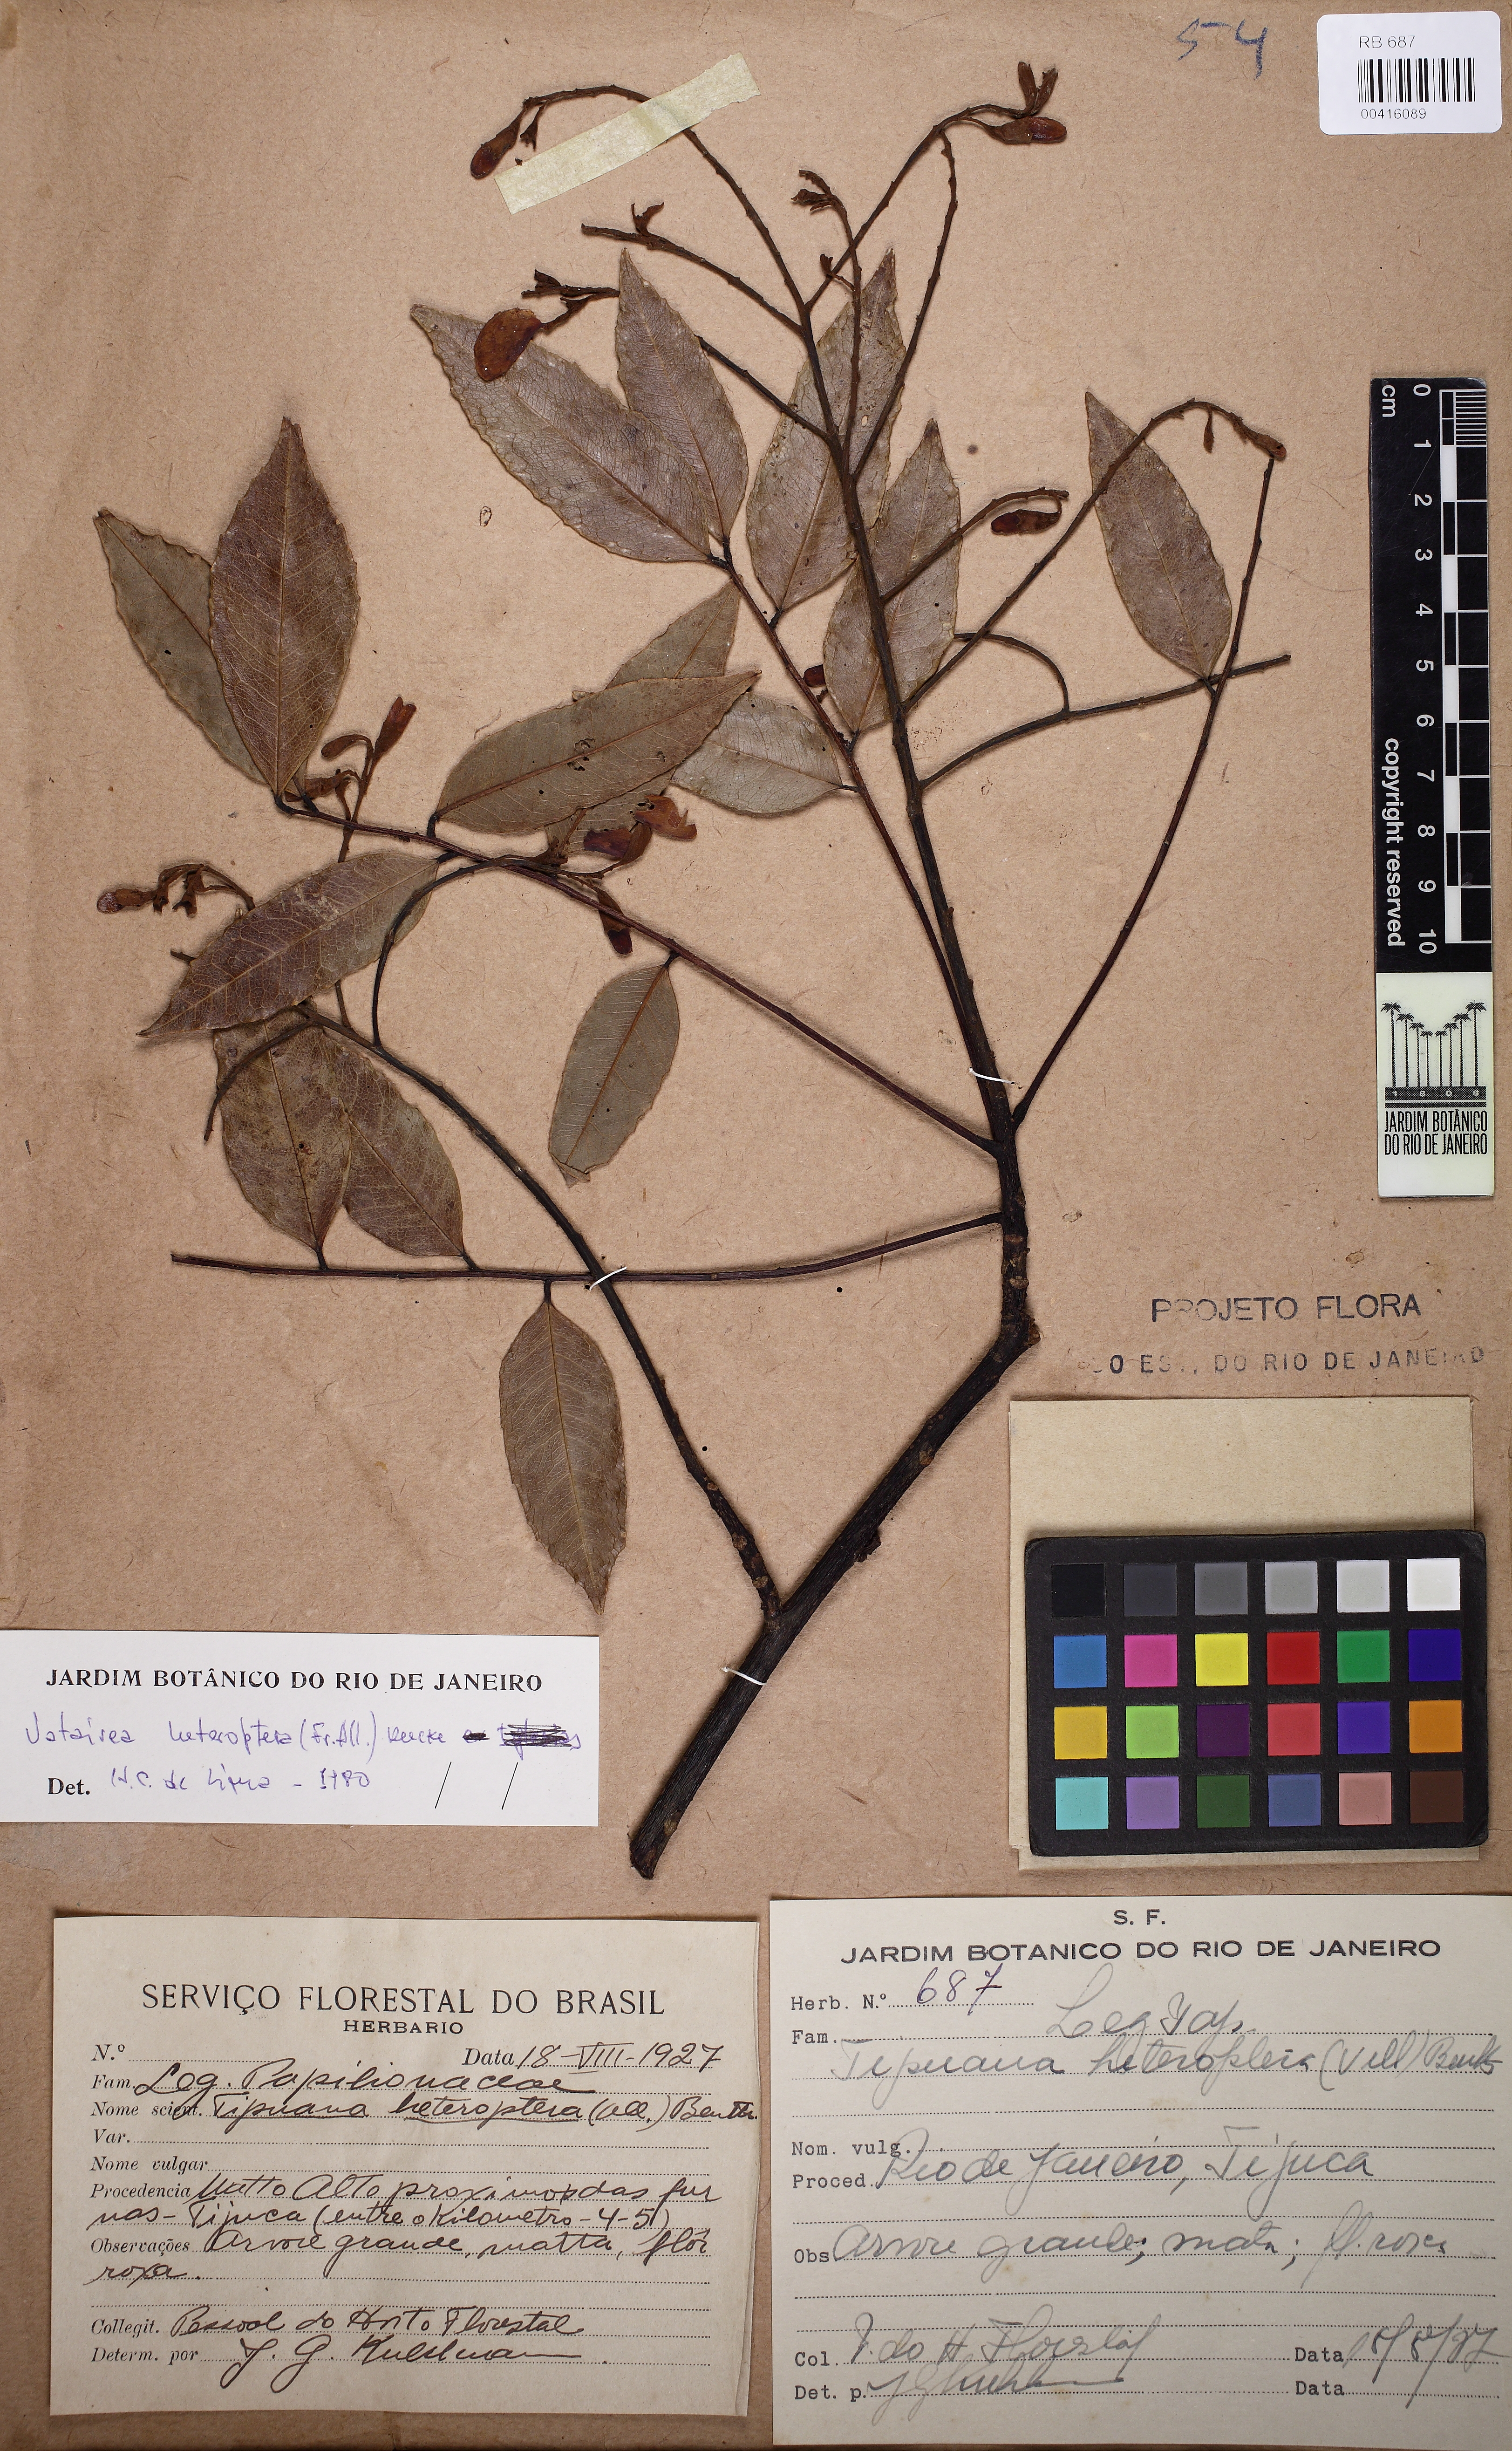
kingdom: Plantae
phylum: Tracheophyta
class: Magnoliopsida
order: Fabales
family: Fabaceae
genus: Vatairea
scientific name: Vatairea heteroptera
